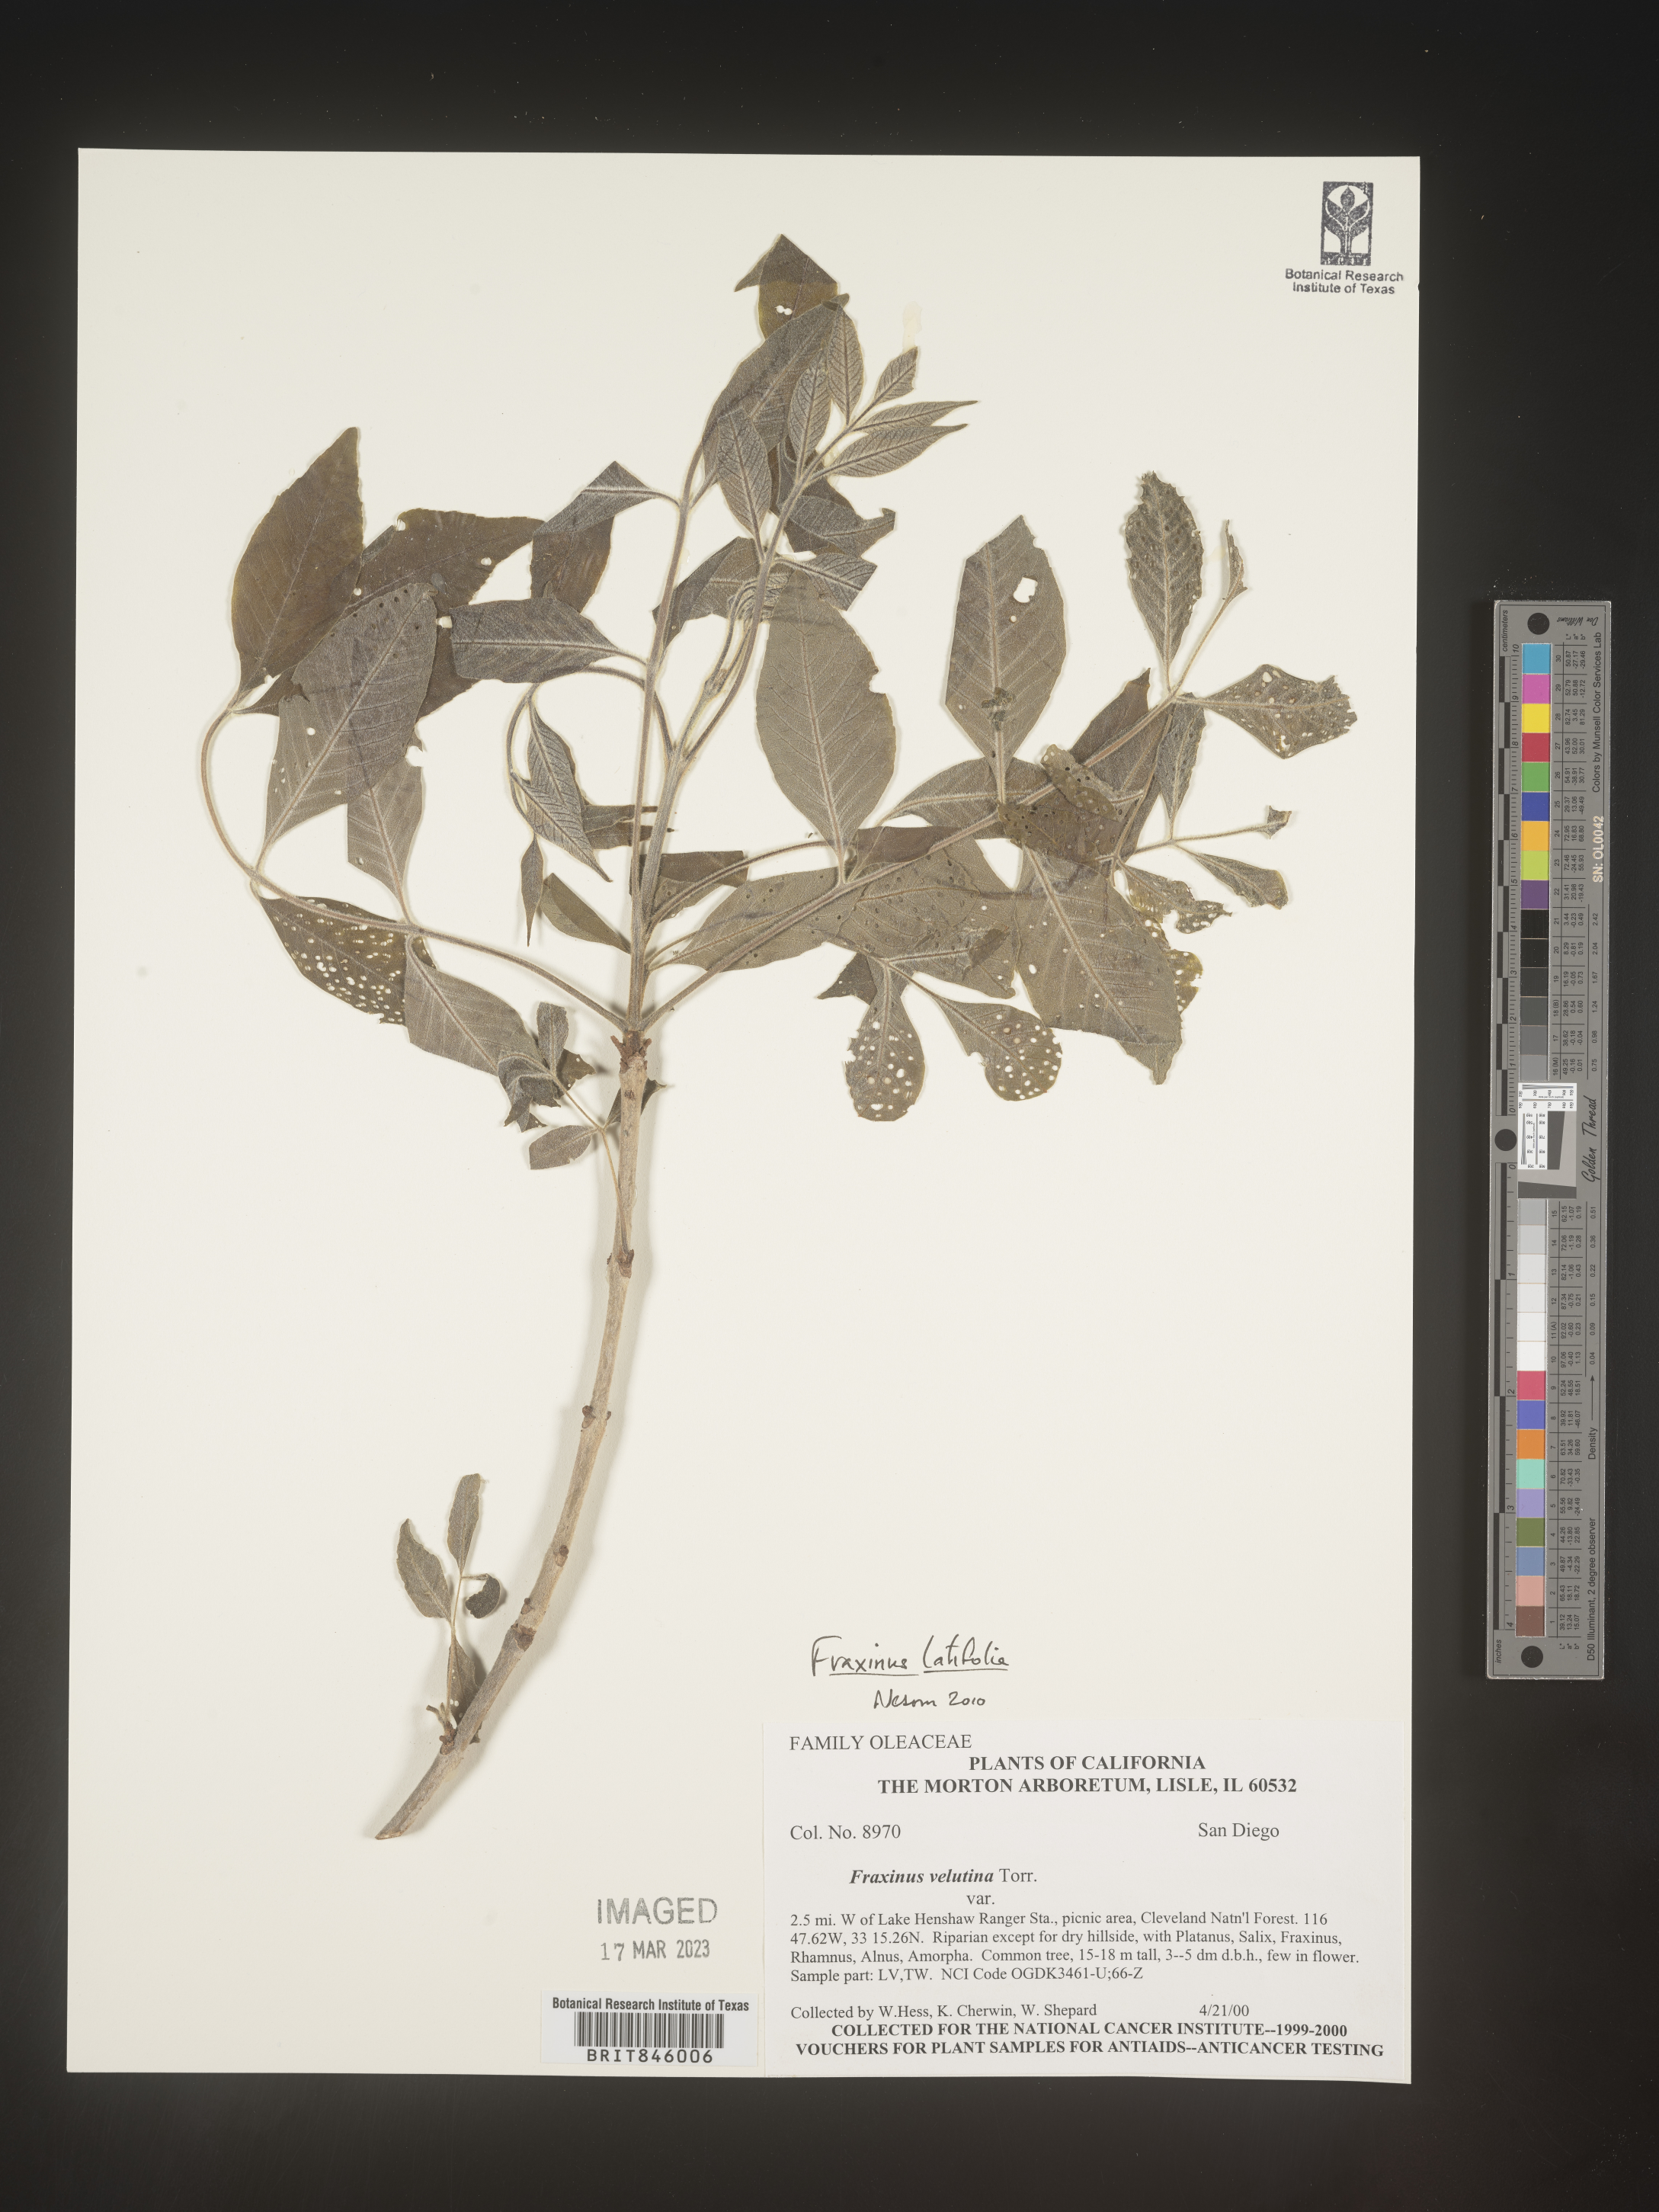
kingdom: Plantae
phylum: Tracheophyta
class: Magnoliopsida
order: Lamiales
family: Oleaceae
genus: Fraxinus
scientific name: Fraxinus latifolia
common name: Oregon ash
